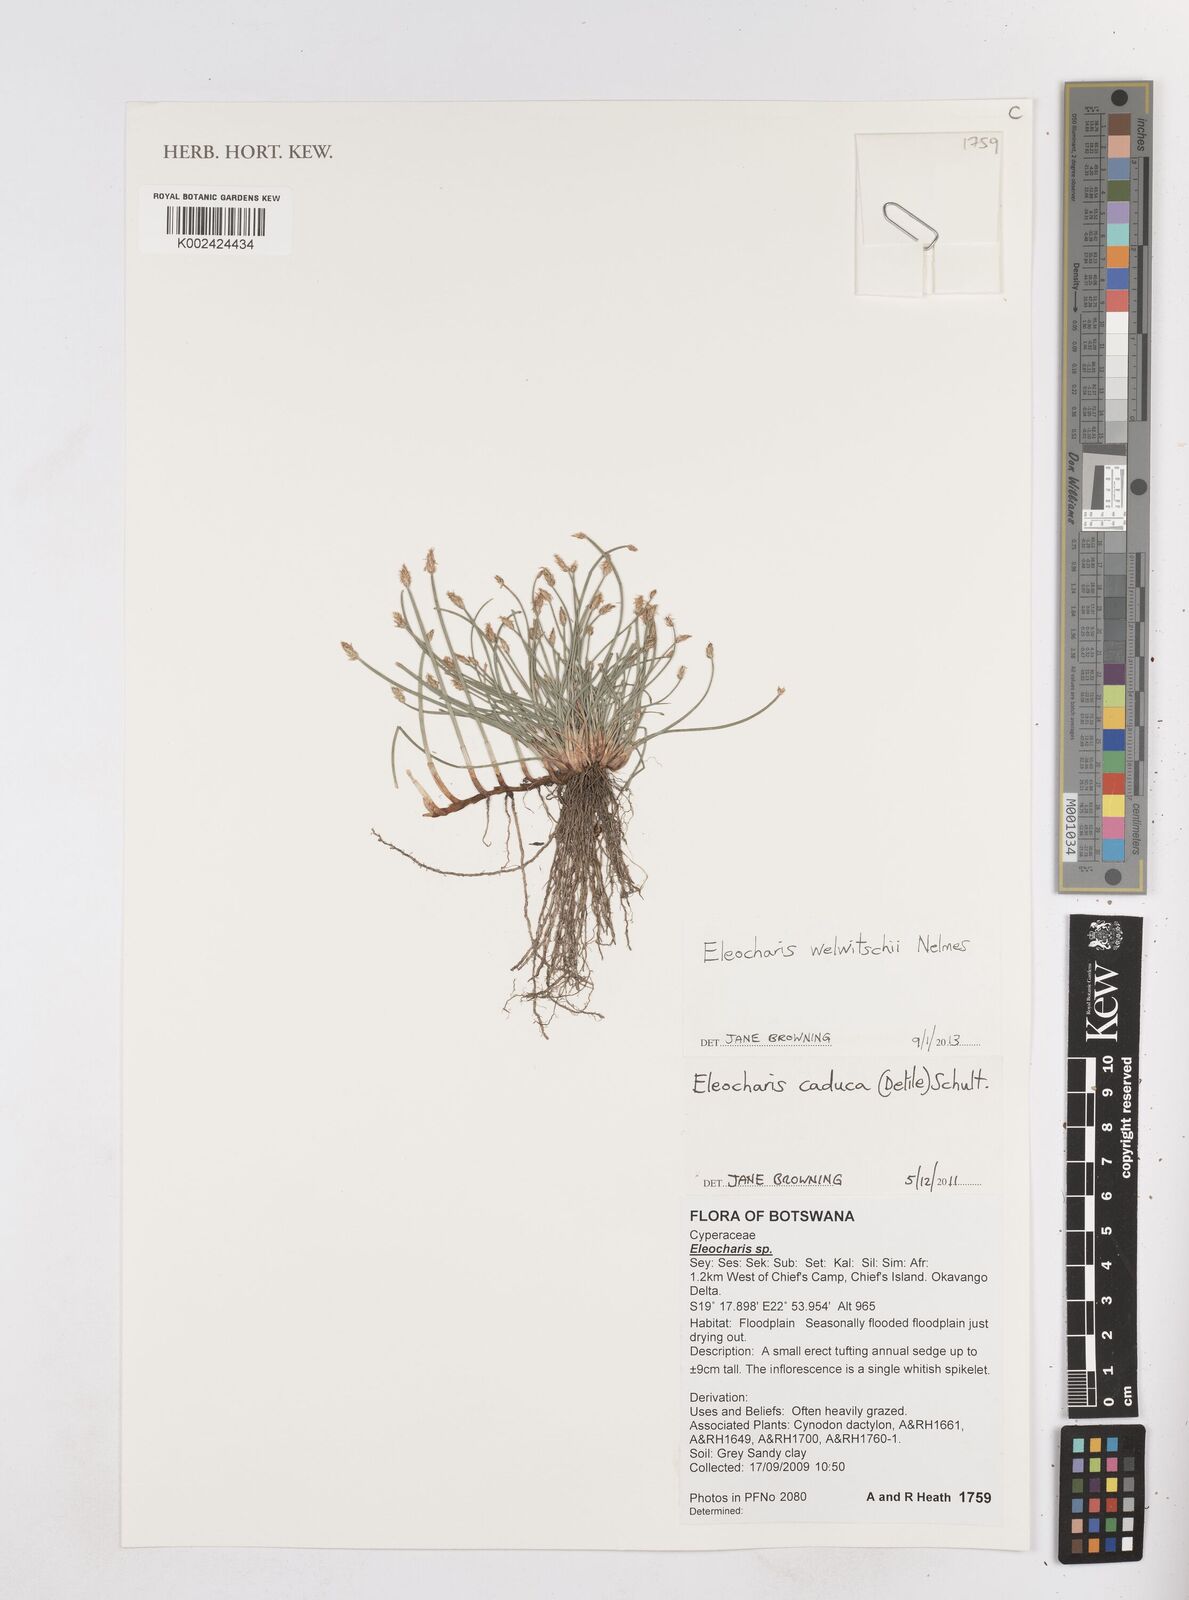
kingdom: Plantae
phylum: Tracheophyta
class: Liliopsida
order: Poales
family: Cyperaceae
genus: Eleocharis
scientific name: Eleocharis welwitschii
